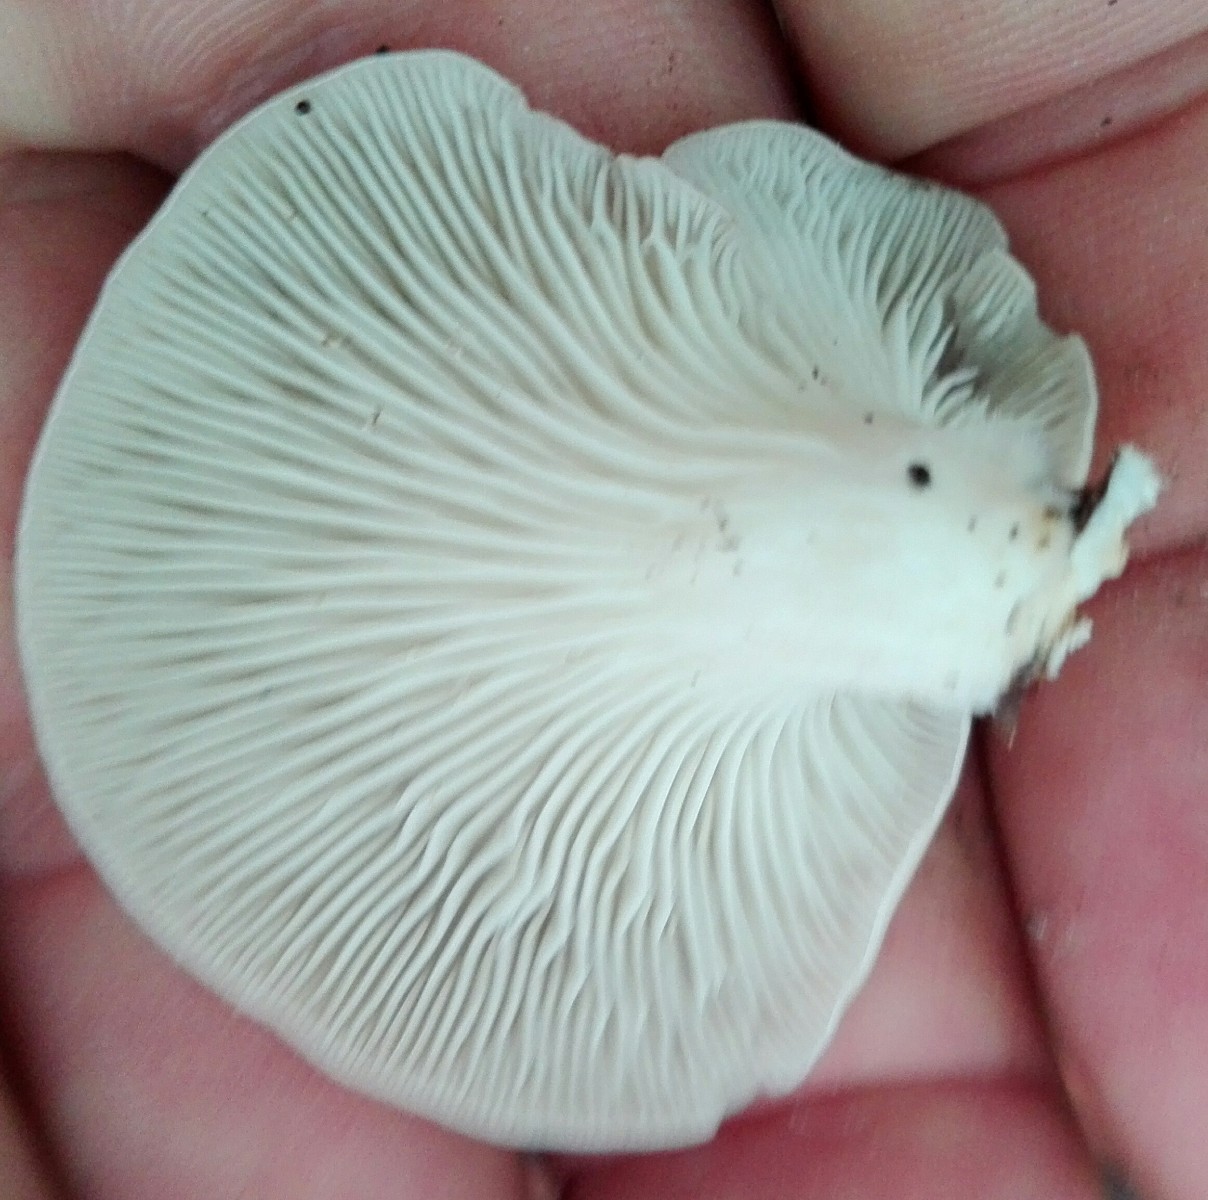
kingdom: Fungi
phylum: Basidiomycota
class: Agaricomycetes
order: Agaricales
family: Pleurotaceae
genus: Pleurotus
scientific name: Pleurotus pulmonarius
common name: sommer-østershat
